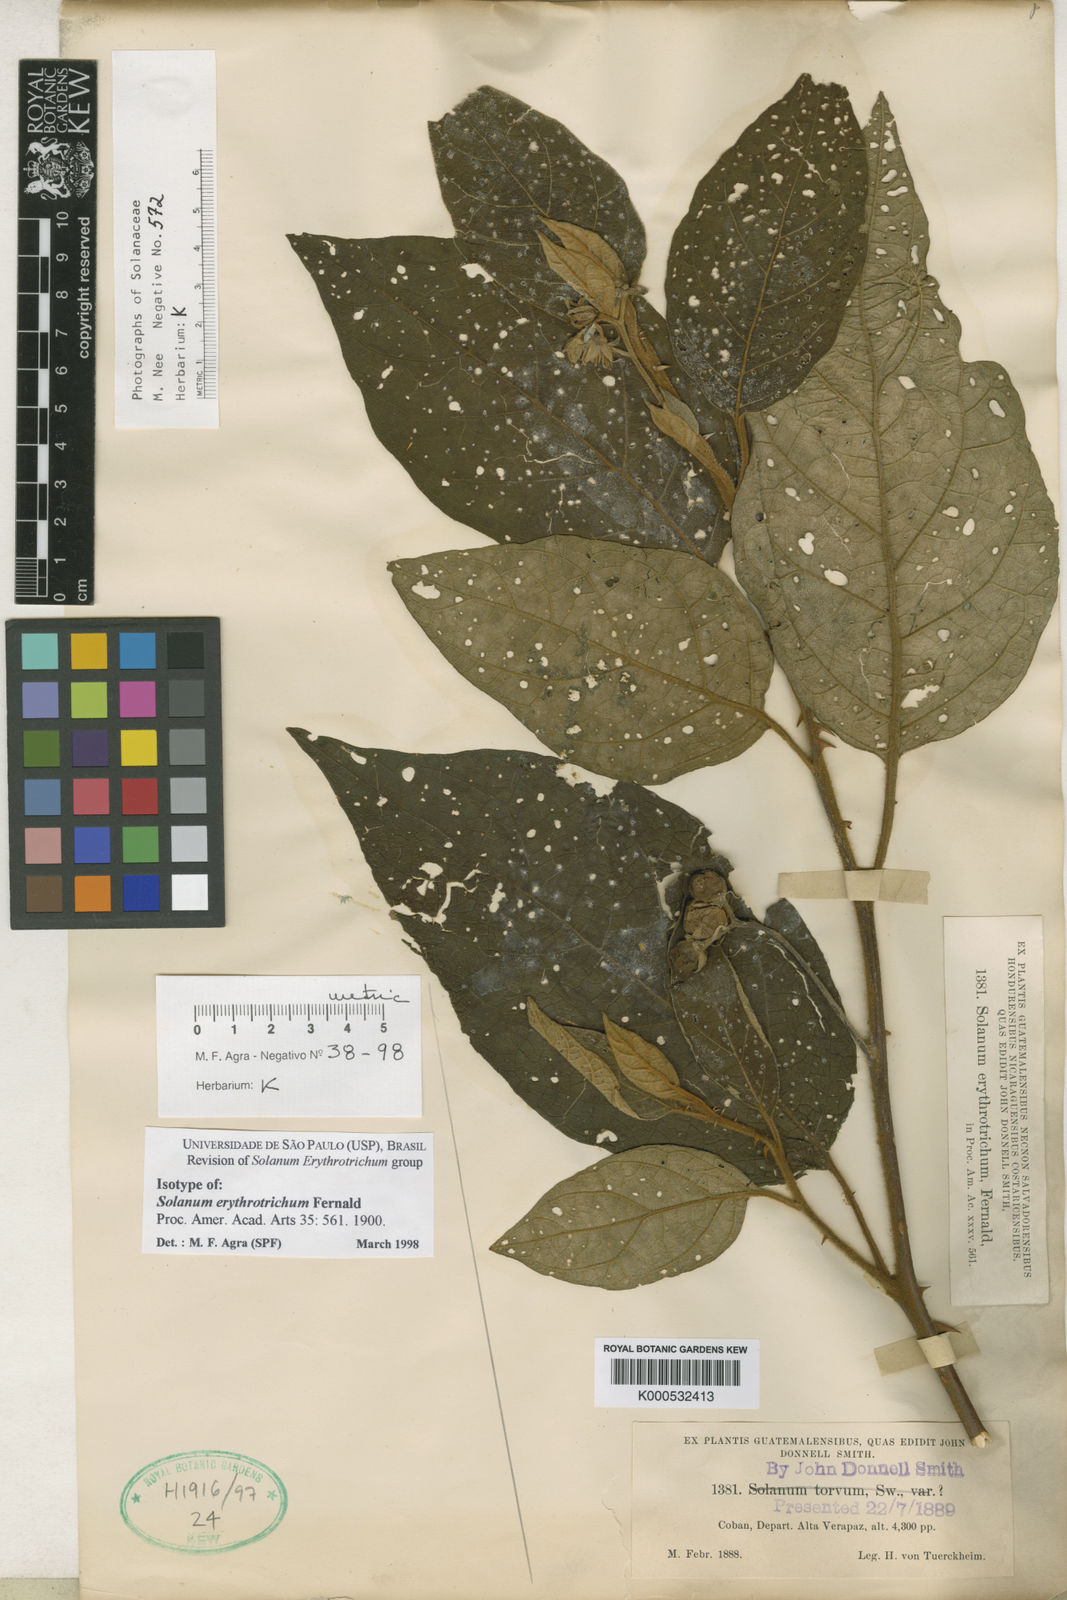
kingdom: Plantae
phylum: Tracheophyta
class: Magnoliopsida
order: Solanales
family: Solanaceae
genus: Solanum
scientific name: Solanum erythrotrichum
